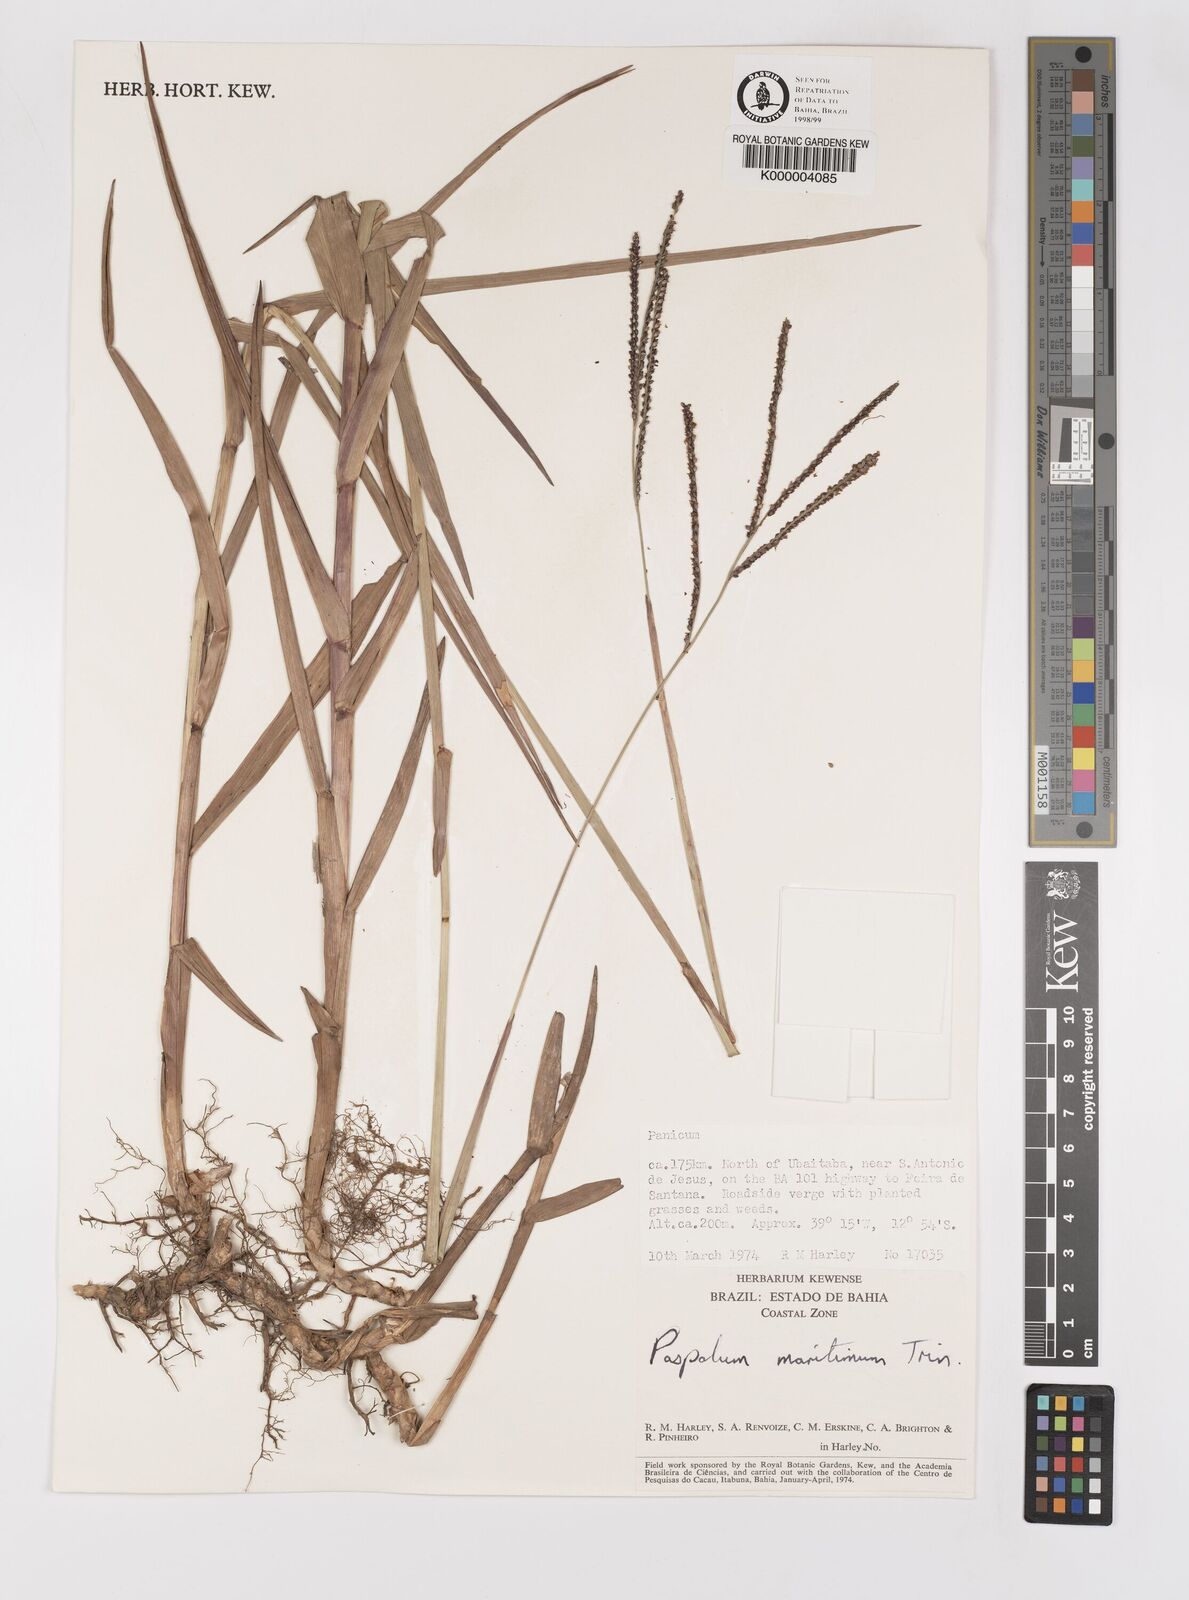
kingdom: Plantae
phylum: Tracheophyta
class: Liliopsida
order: Poales
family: Poaceae
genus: Paspalum
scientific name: Paspalum maritimum
